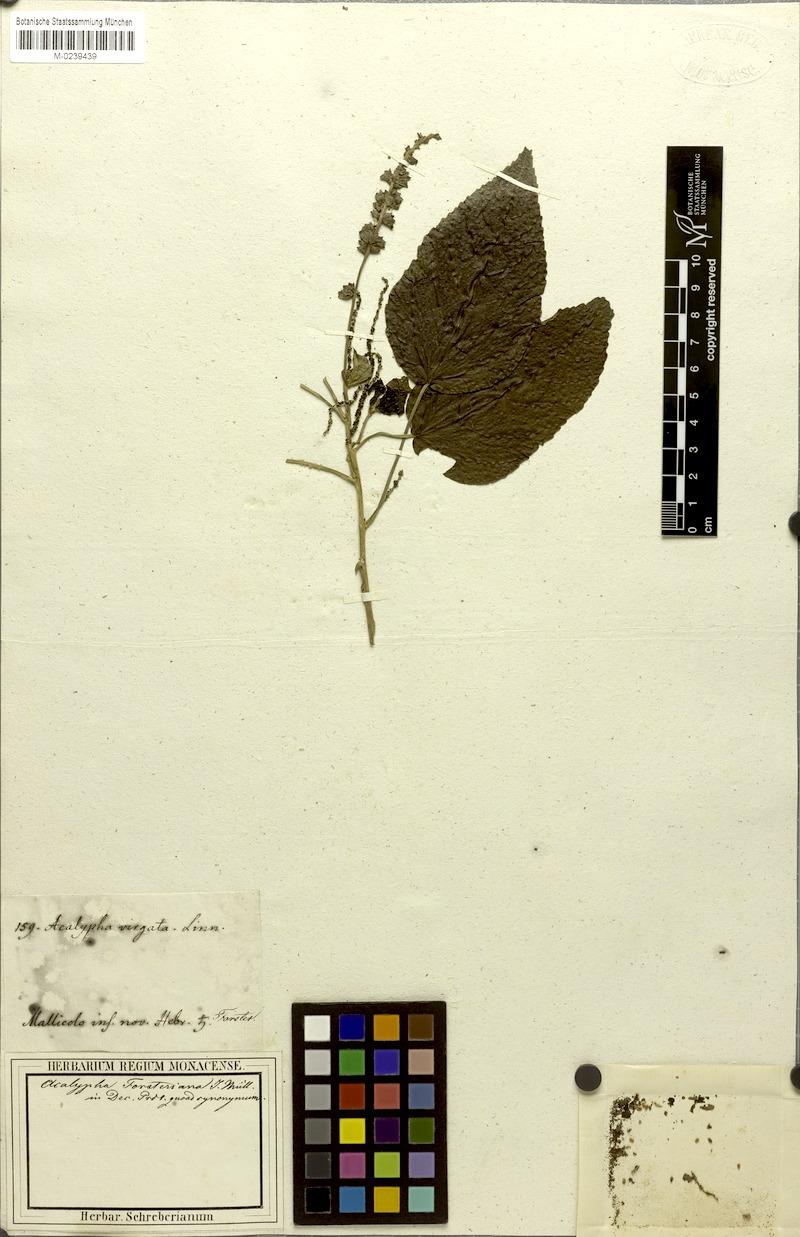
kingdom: Plantae
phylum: Tracheophyta
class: Magnoliopsida
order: Malpighiales
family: Euphorbiaceae
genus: Acalypha
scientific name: Acalypha forsteriana
